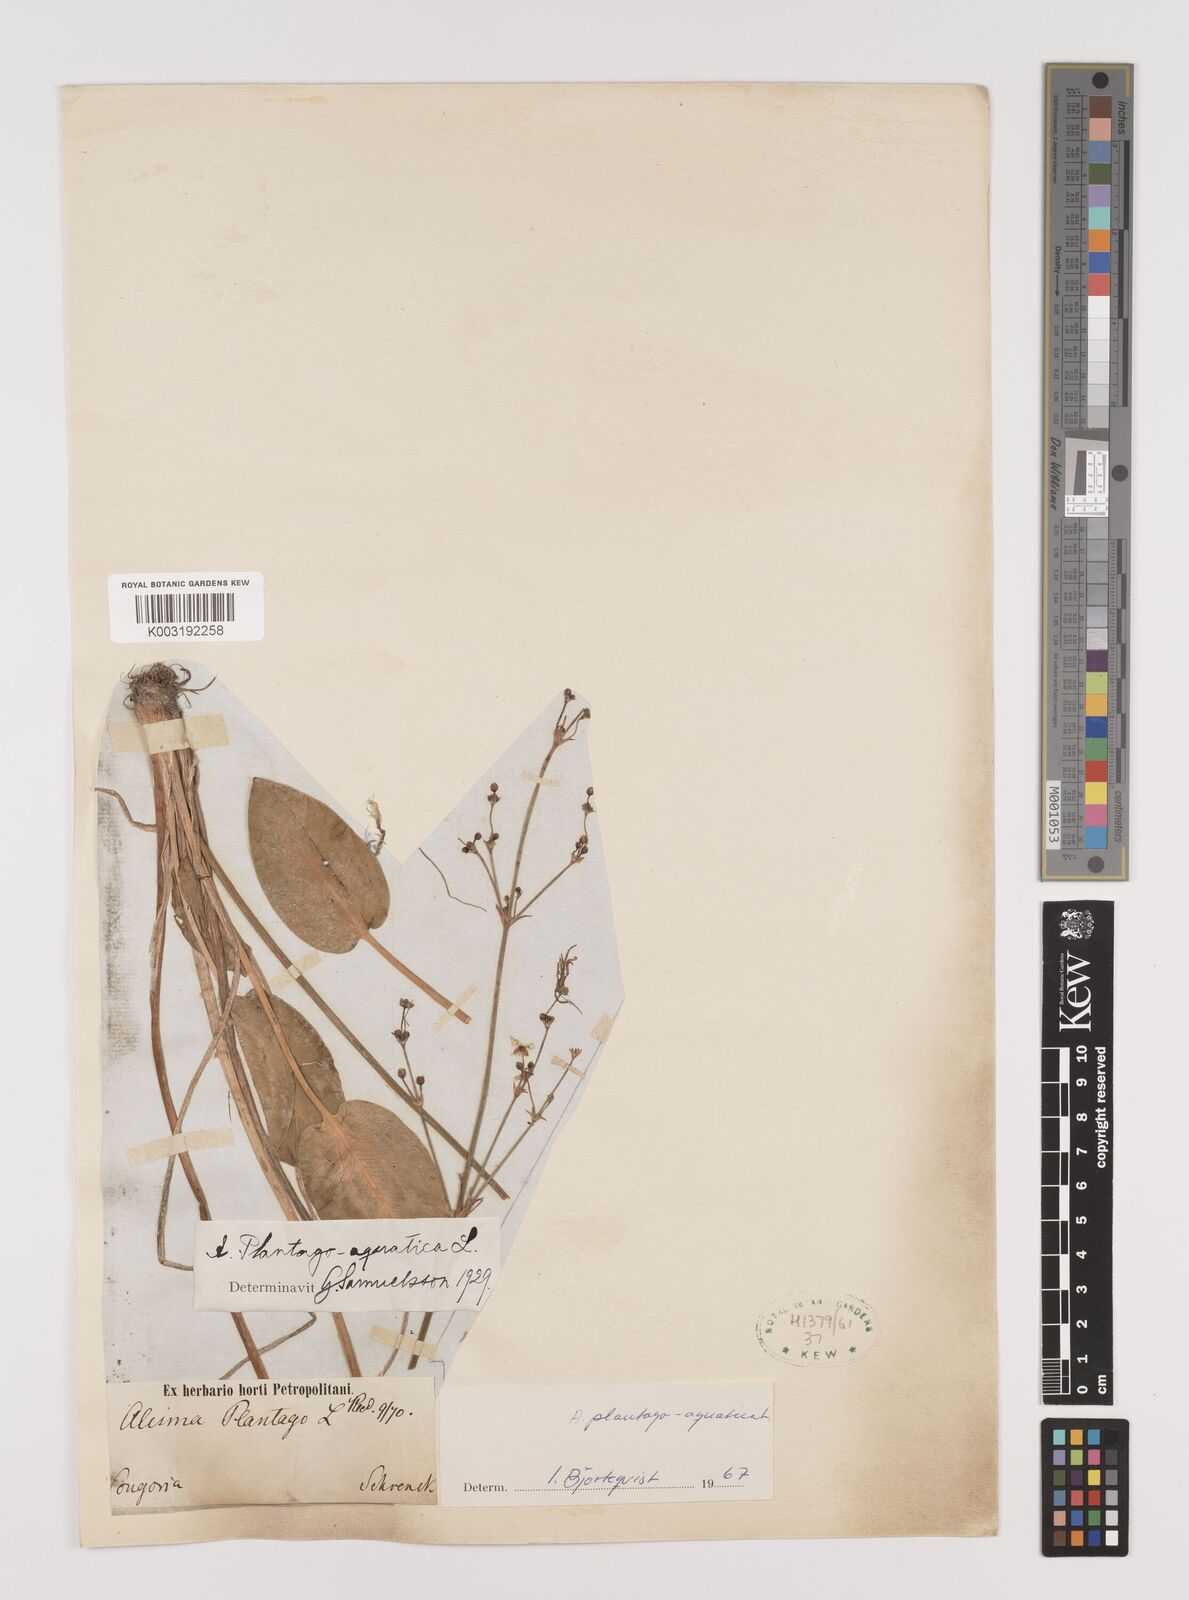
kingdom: Plantae
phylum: Tracheophyta
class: Liliopsida
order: Alismatales
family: Alismataceae
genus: Alisma
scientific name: Alisma plantago-aquatica
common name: Water-plantain
